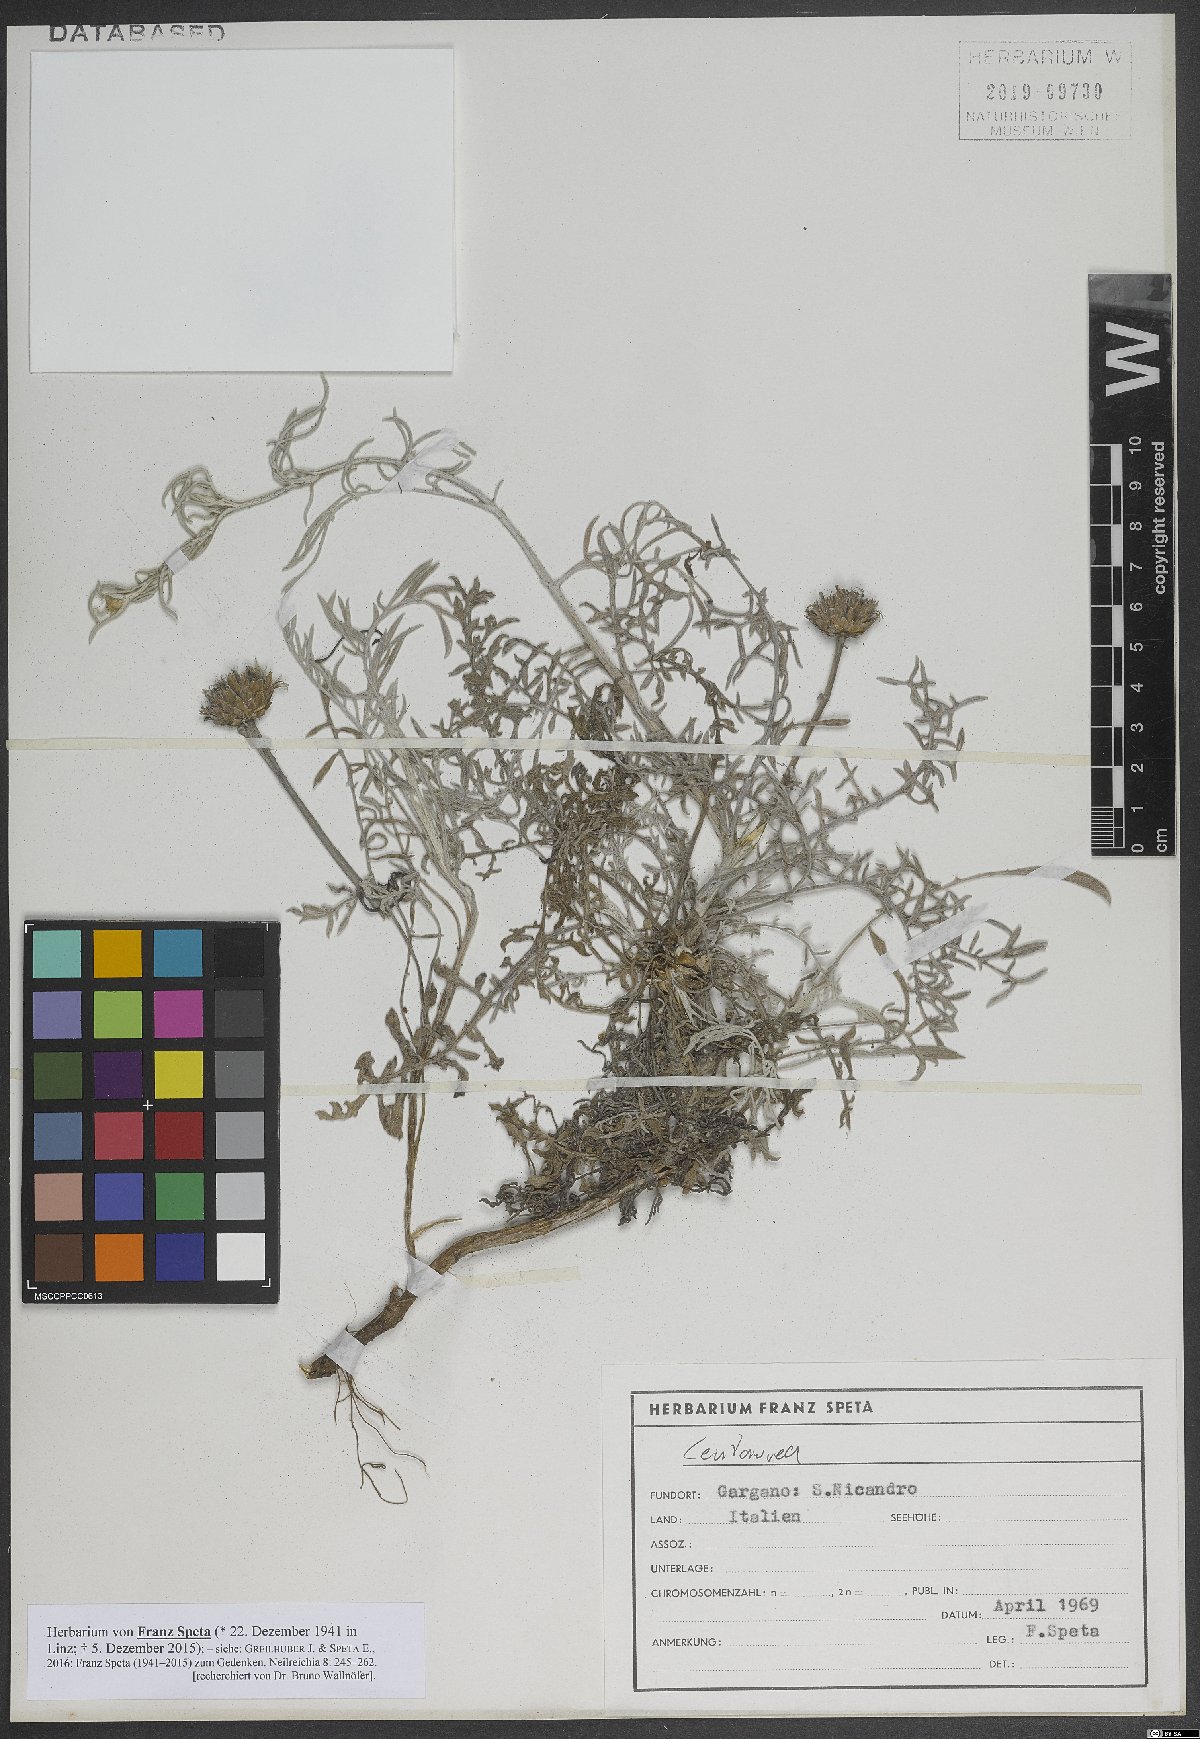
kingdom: Plantae
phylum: Tracheophyta
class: Magnoliopsida
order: Asterales
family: Asteraceae
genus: Centaurea
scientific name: Centaurea
